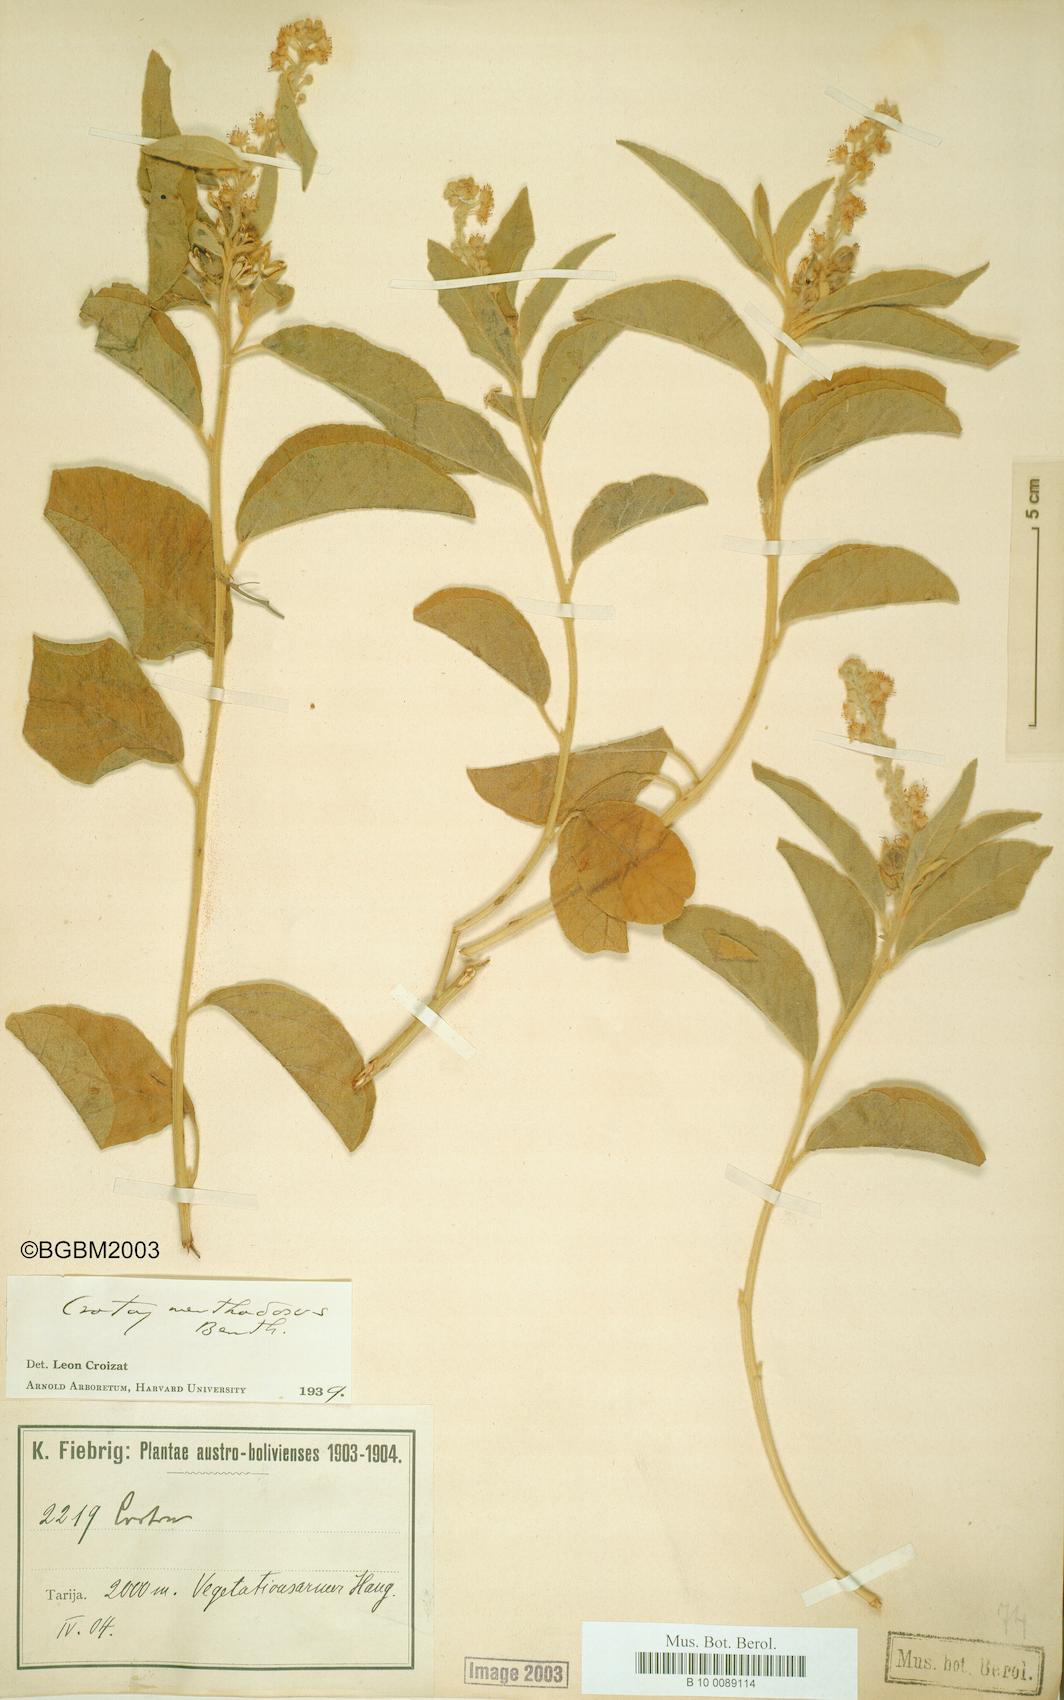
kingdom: Plantae
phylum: Tracheophyta
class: Magnoliopsida
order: Malpighiales
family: Euphorbiaceae
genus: Croton
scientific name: Croton menthodorus
